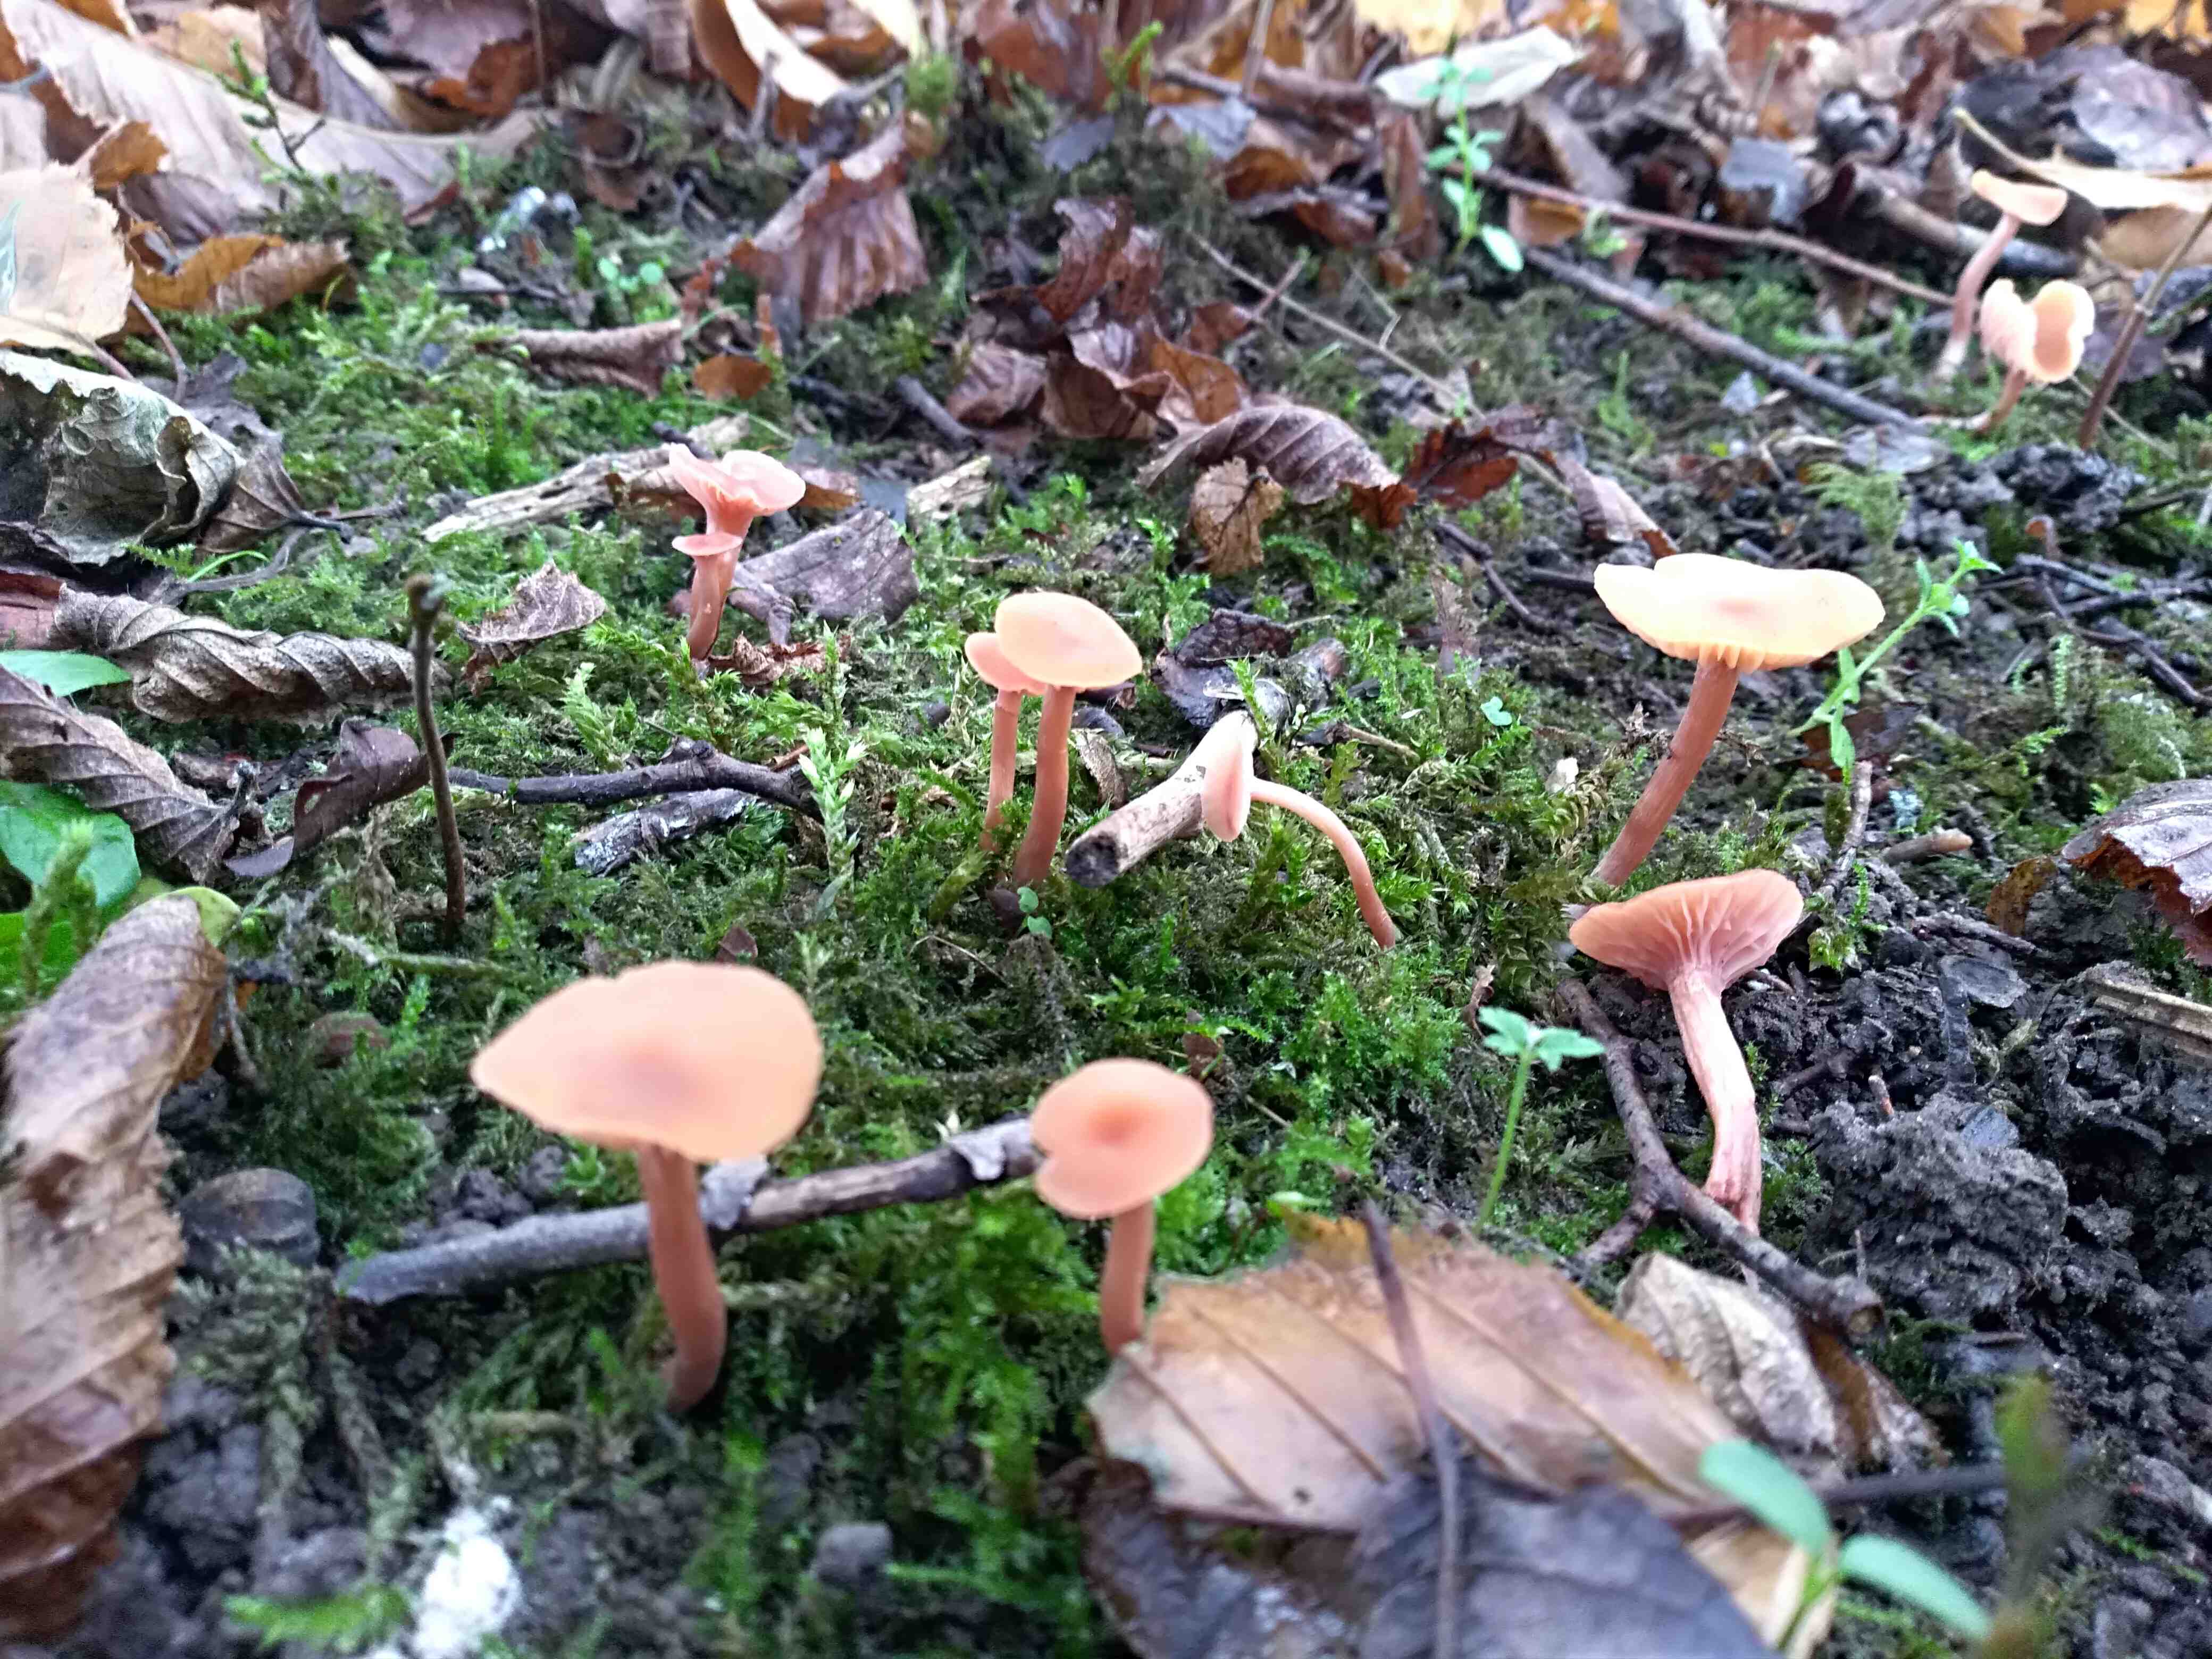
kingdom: Fungi
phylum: Basidiomycota
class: Agaricomycetes
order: Agaricales
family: Hydnangiaceae
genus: Laccaria
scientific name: Laccaria laccata
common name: rød ametysthat
